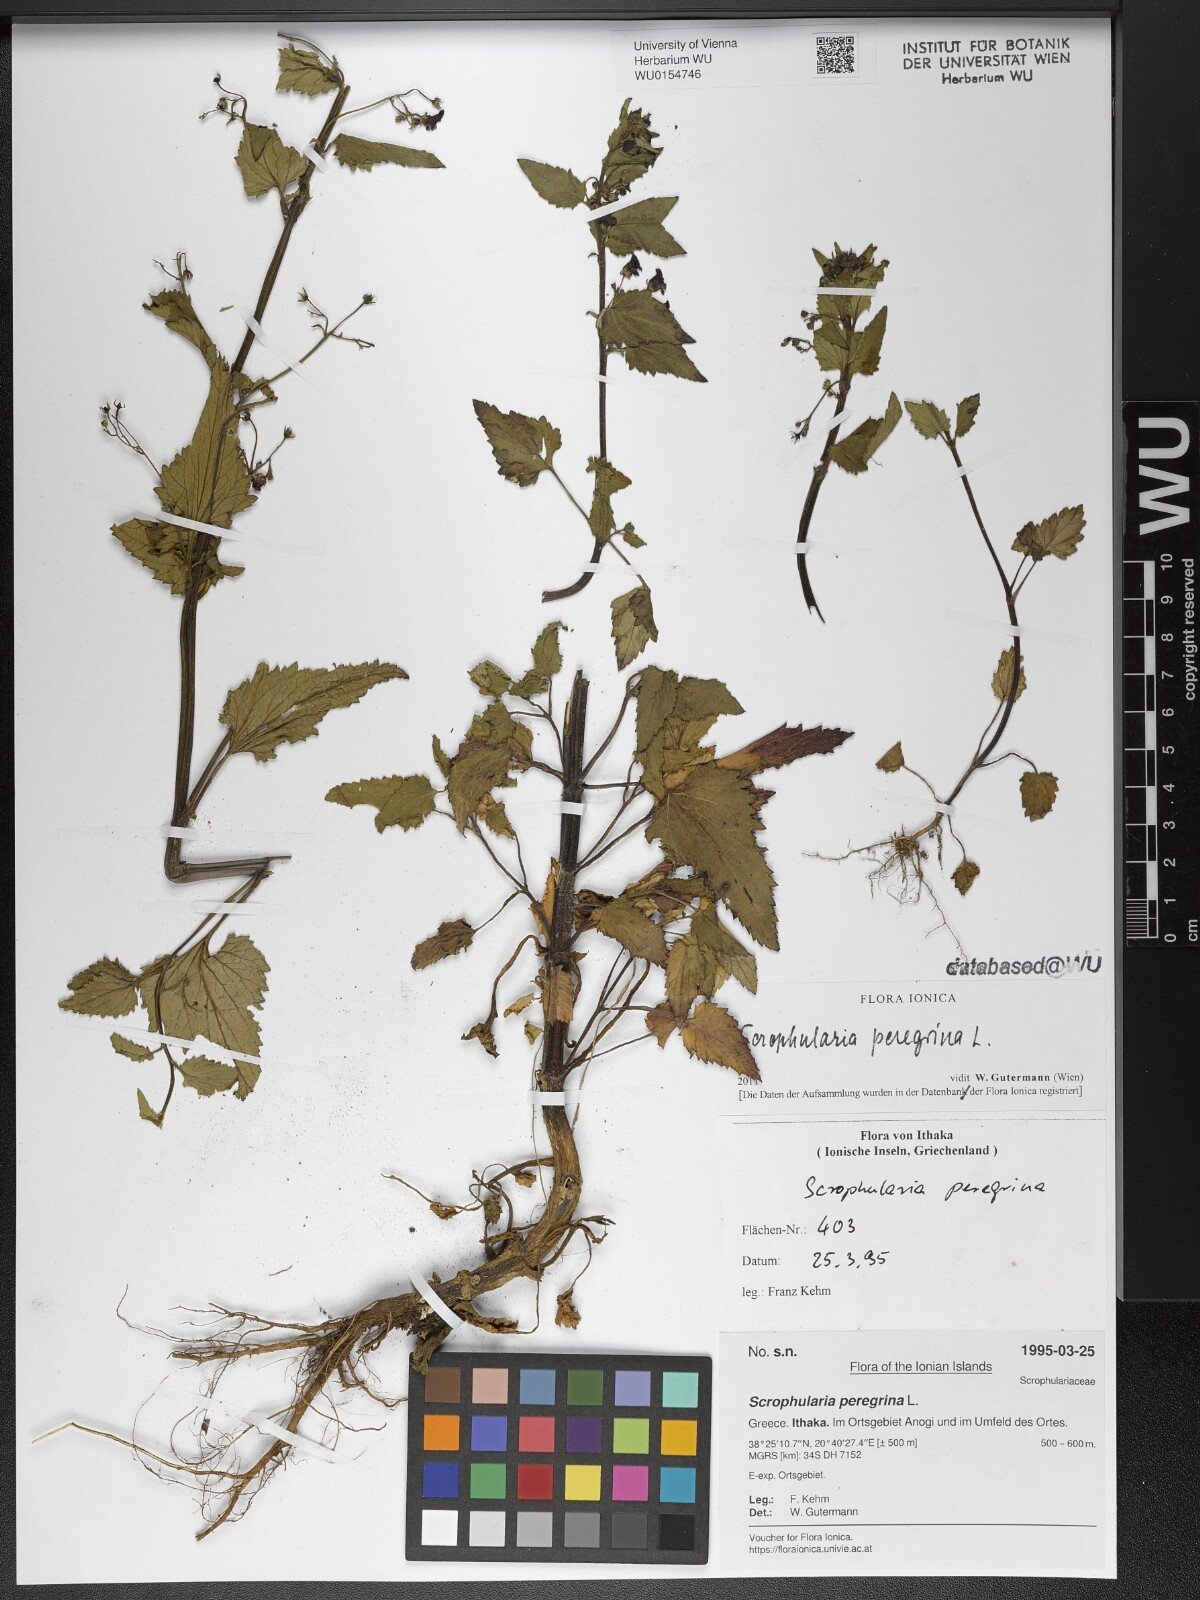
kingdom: Plantae
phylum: Tracheophyta
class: Magnoliopsida
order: Lamiales
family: Scrophulariaceae
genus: Scrophularia
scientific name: Scrophularia peregrina
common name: Mediterranean figwort
